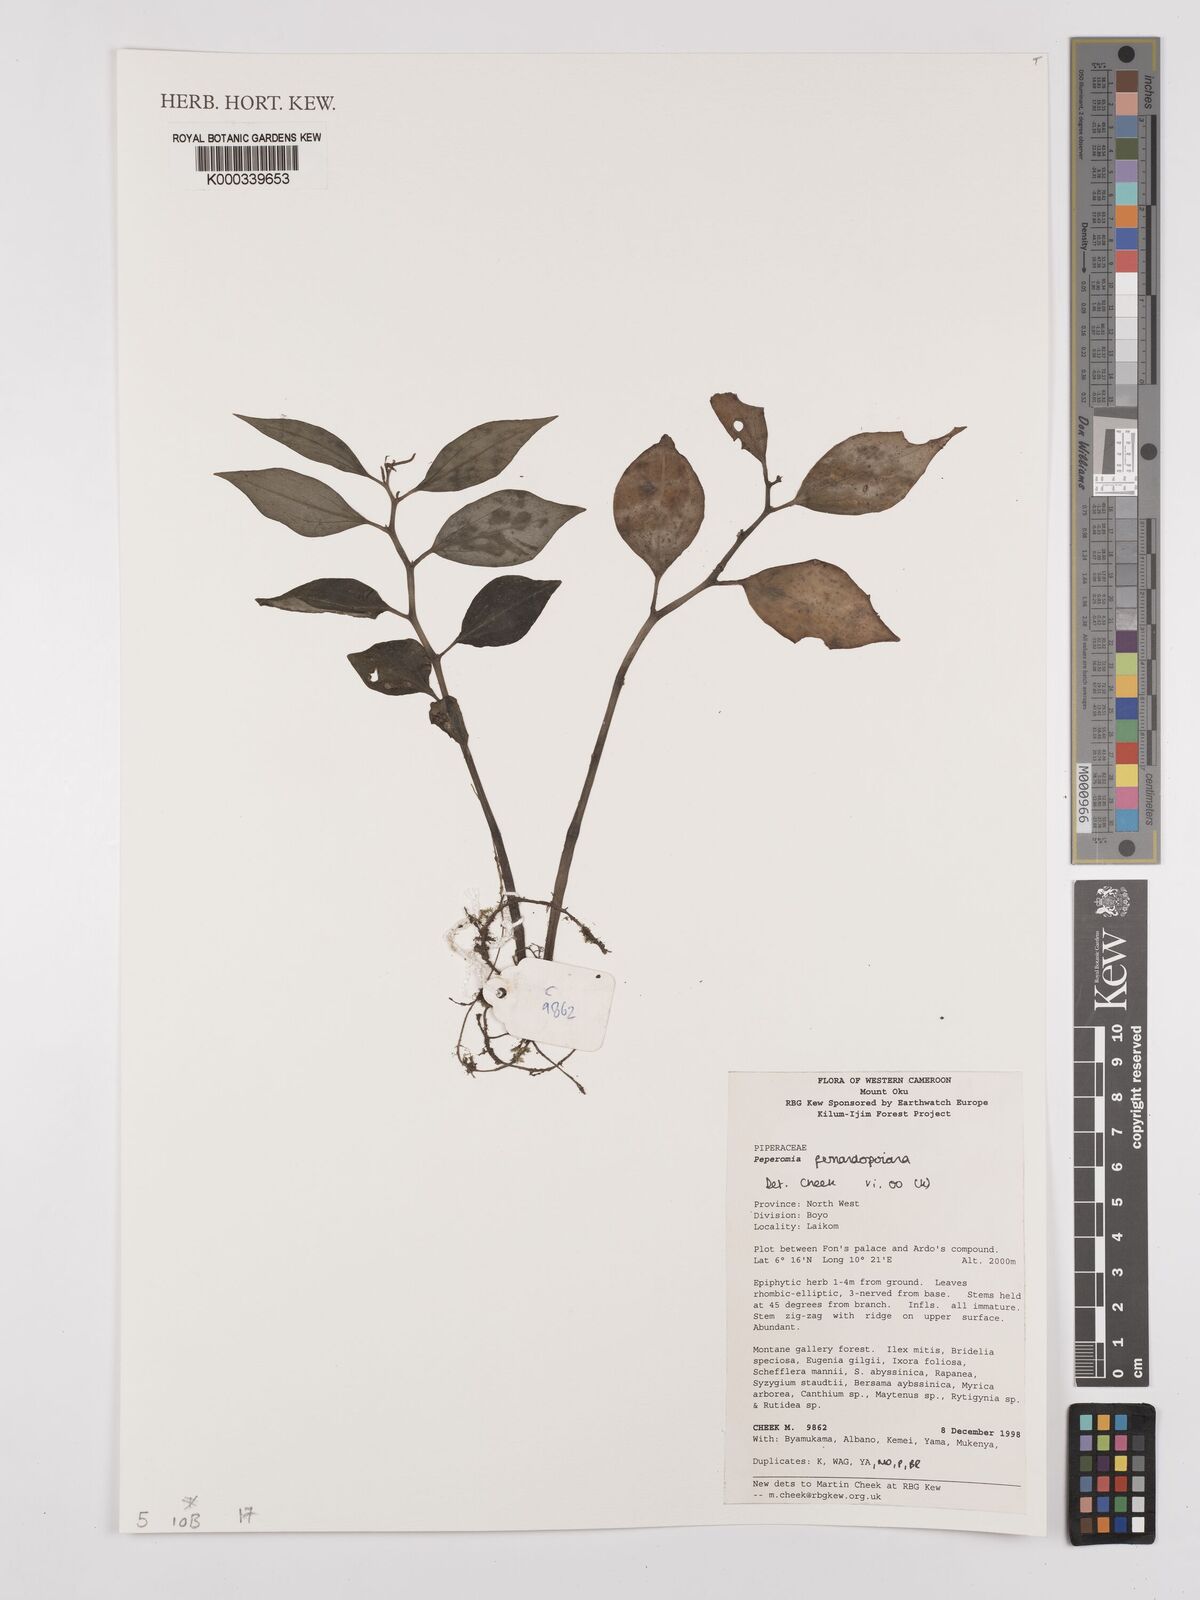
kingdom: Plantae
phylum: Tracheophyta
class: Magnoliopsida
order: Piperales
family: Piperaceae
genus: Peperomia
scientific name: Peperomia fernandopoiana
